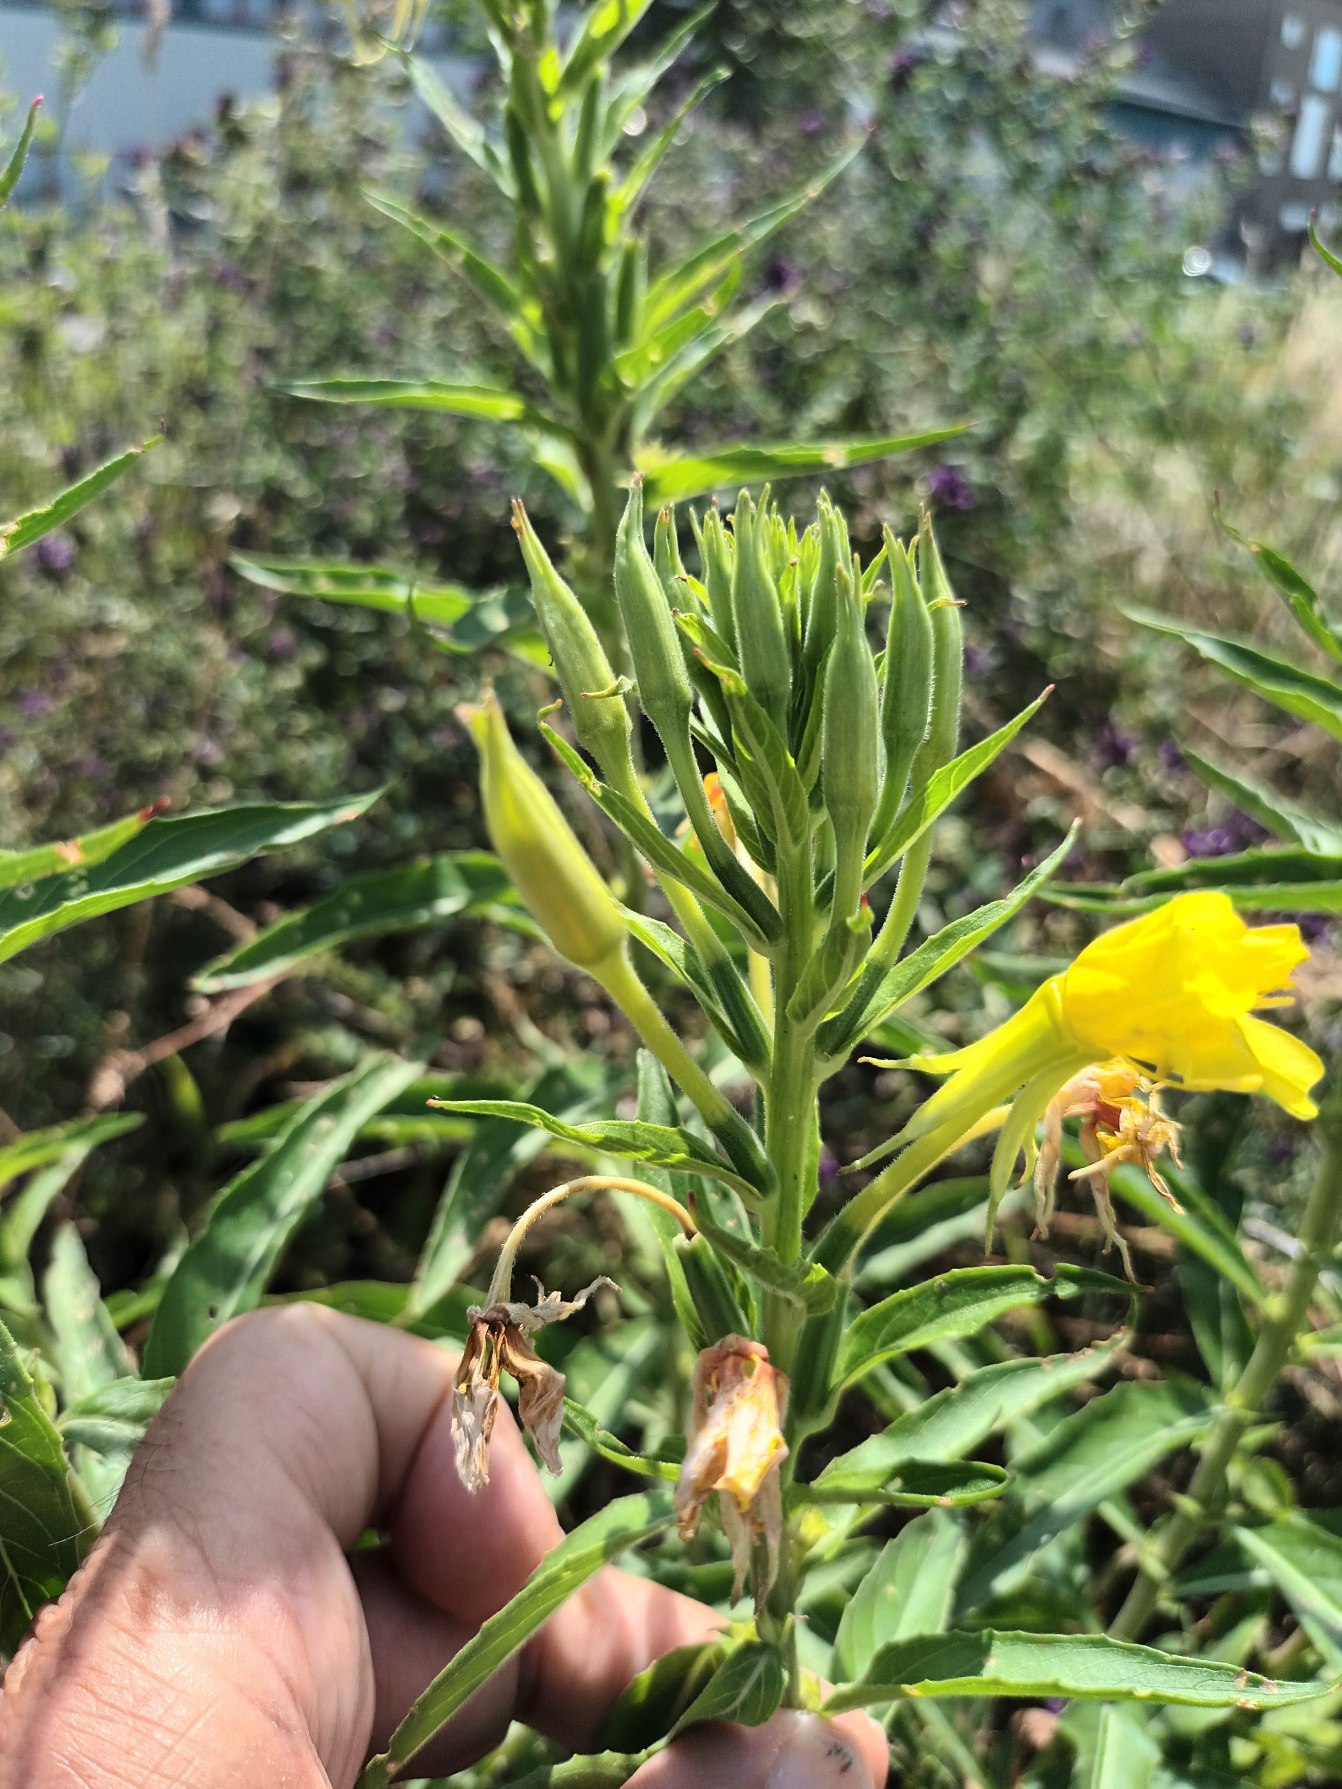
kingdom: Plantae
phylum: Tracheophyta
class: Magnoliopsida
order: Myrtales
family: Onagraceae
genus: Oenothera
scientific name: Oenothera biennis
